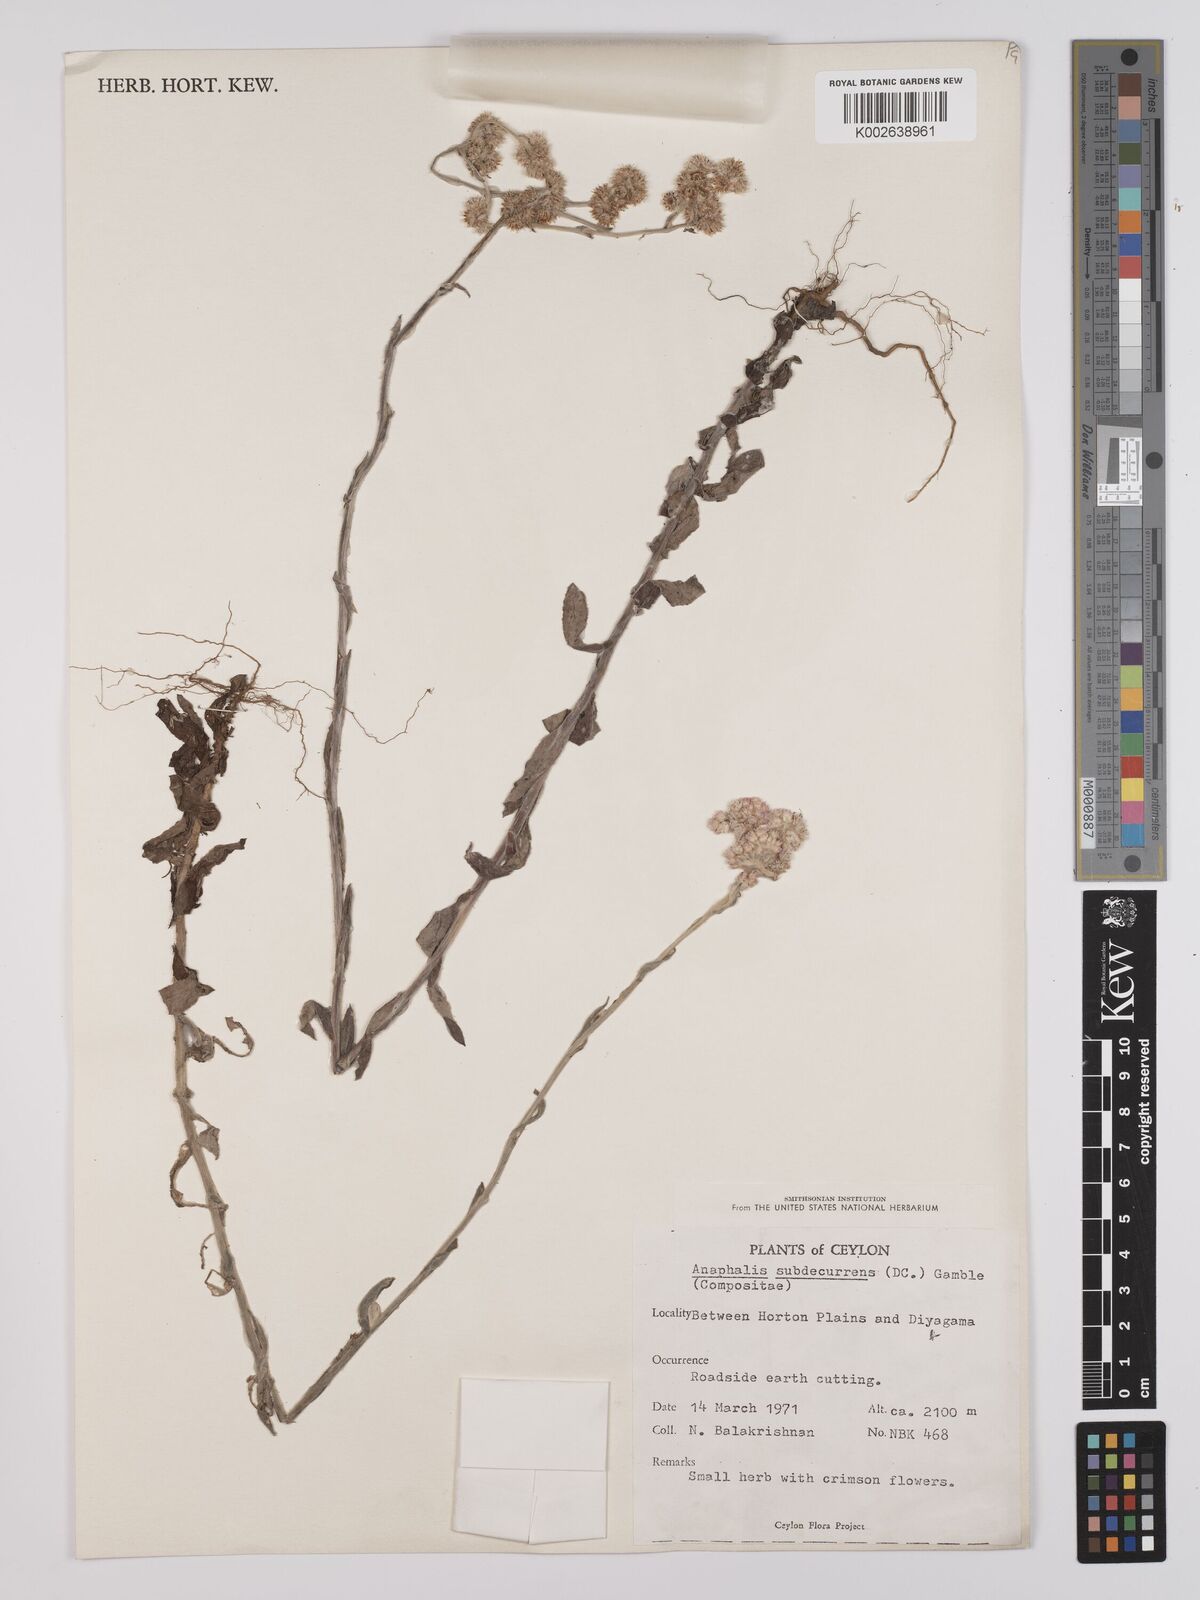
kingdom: Plantae
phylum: Tracheophyta
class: Magnoliopsida
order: Asterales
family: Asteraceae
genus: Anaphalis
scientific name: Anaphalis subdecurrens
